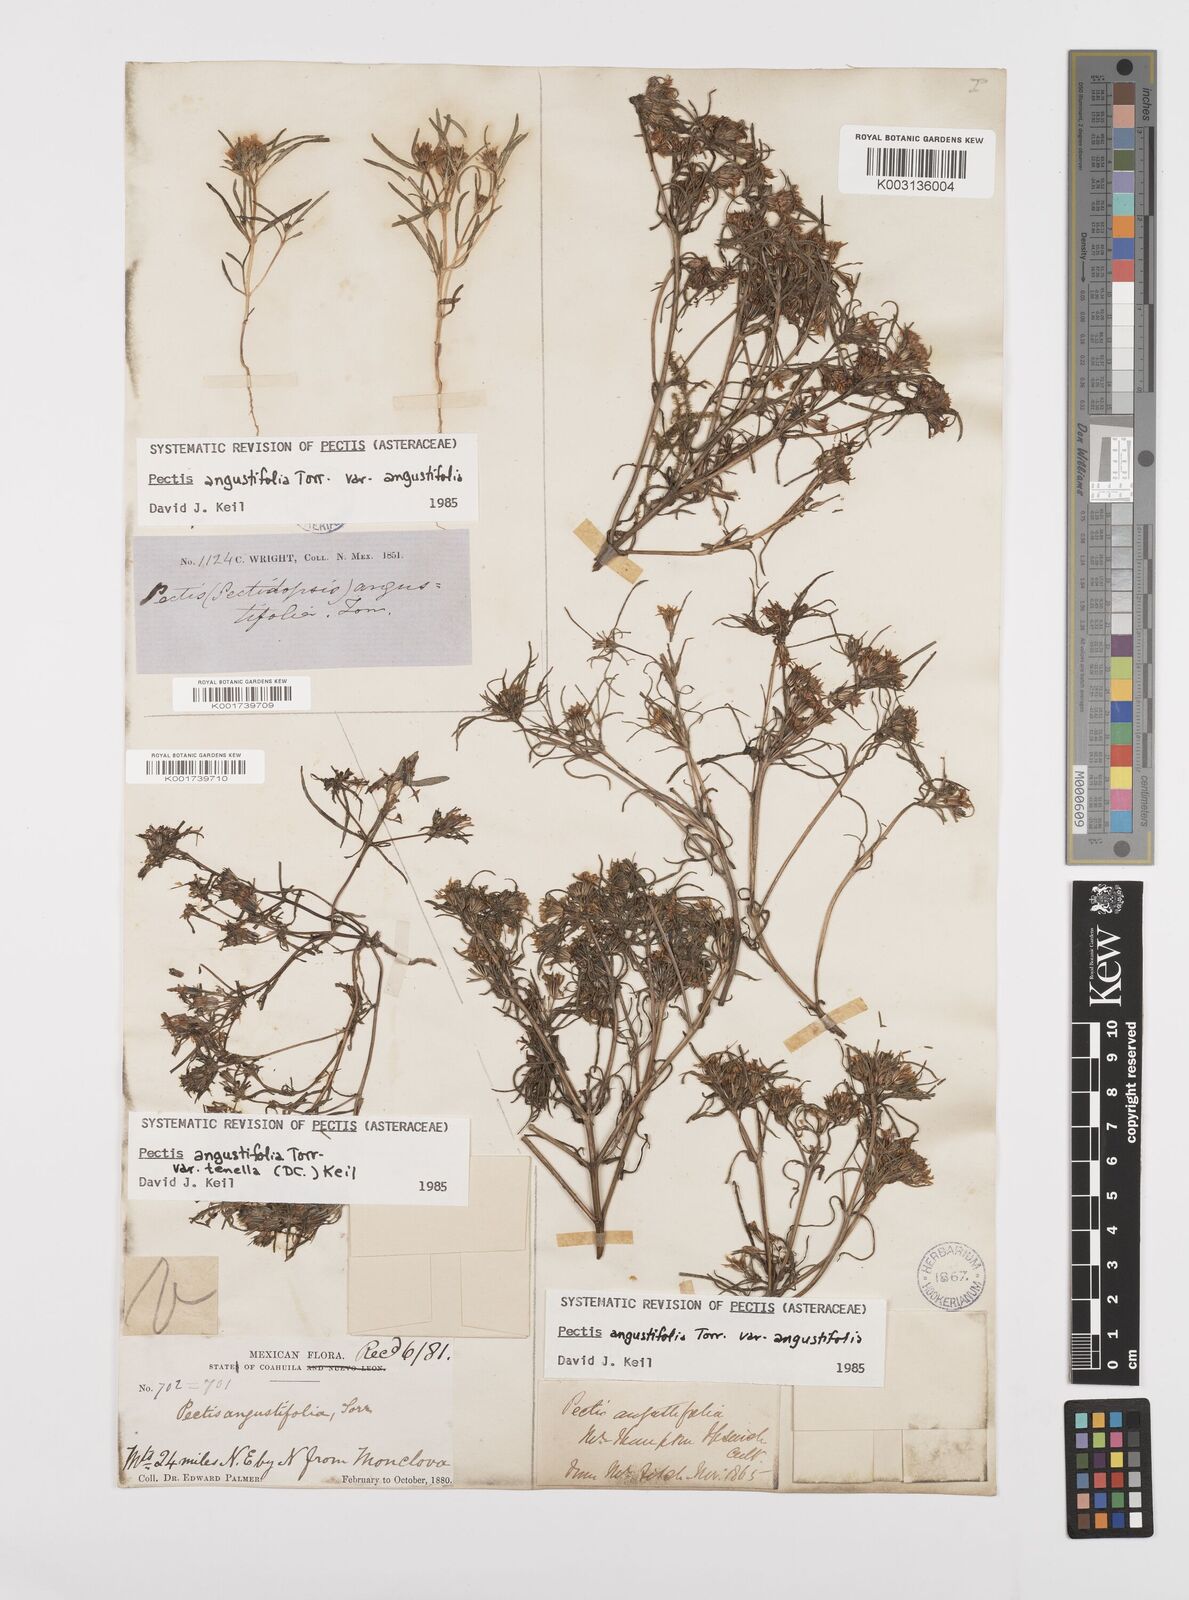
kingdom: Plantae
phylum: Tracheophyta
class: Magnoliopsida
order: Asterales
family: Asteraceae
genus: Pectis
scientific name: Pectis angustifolia
